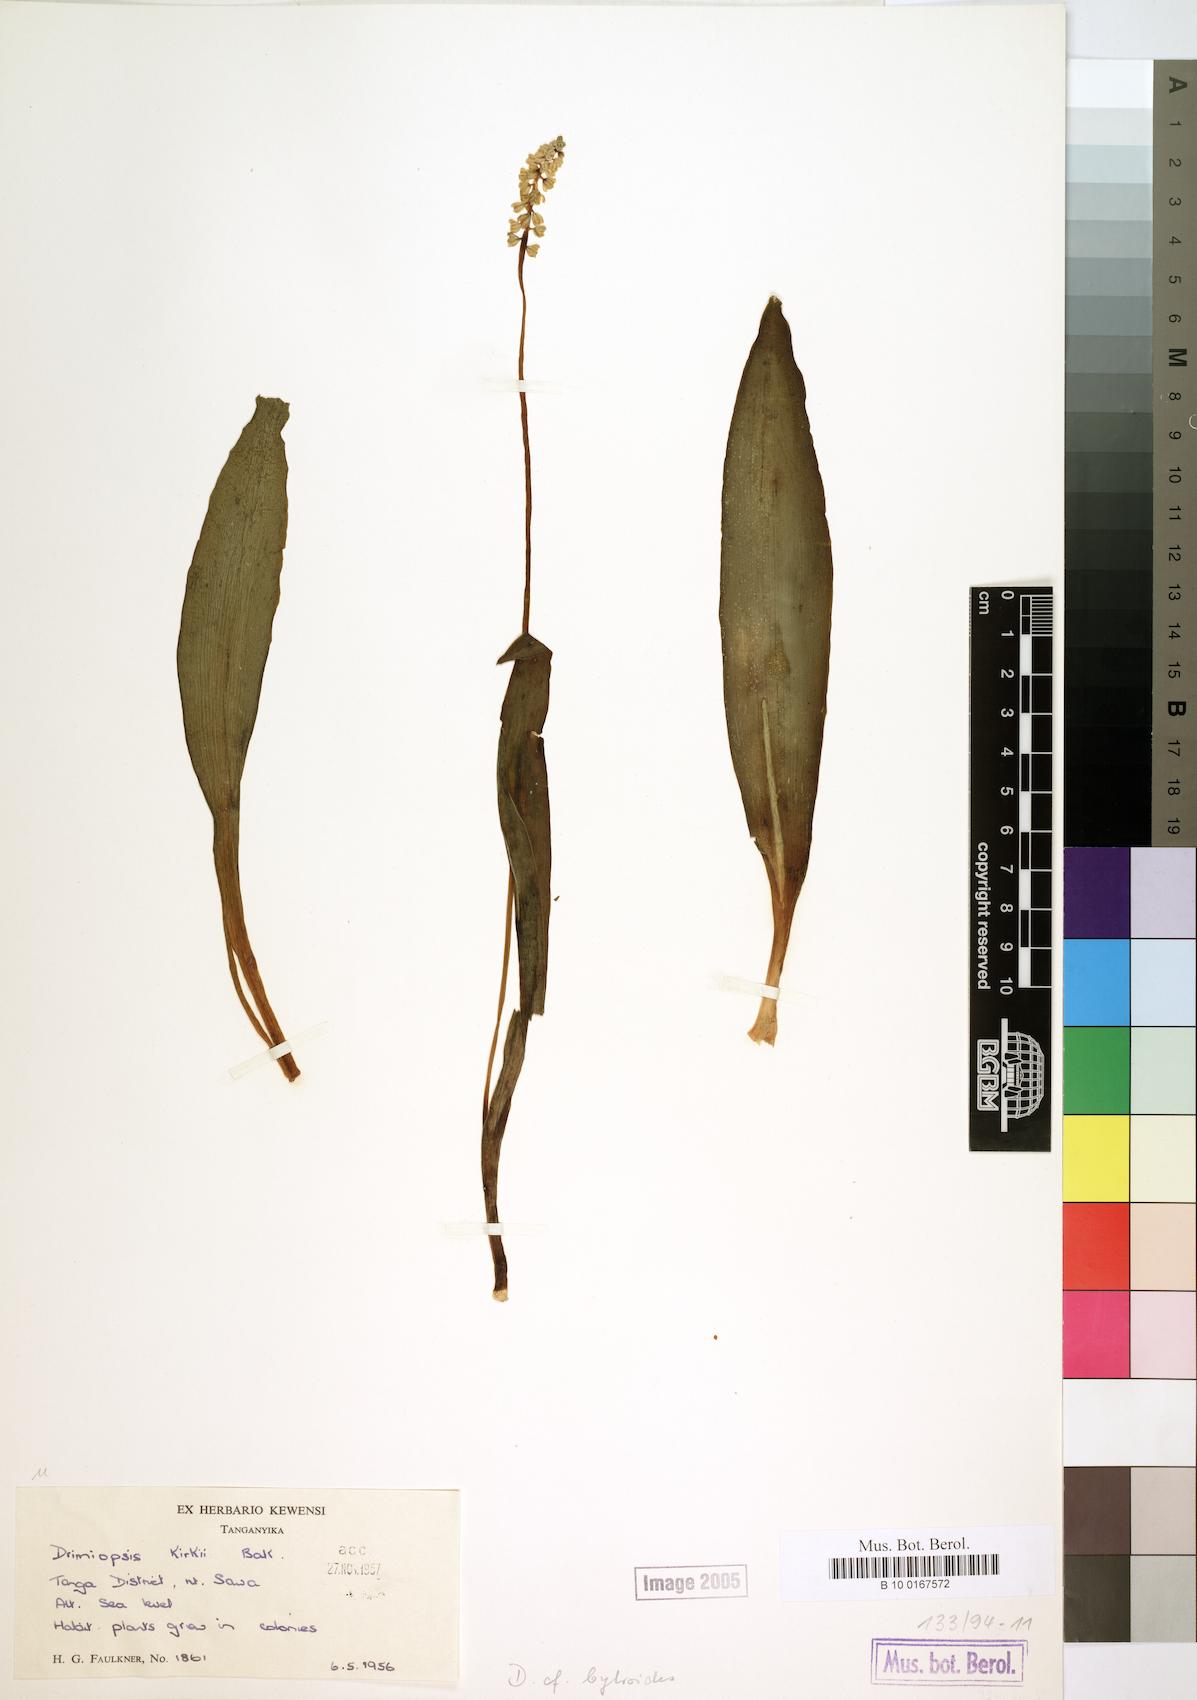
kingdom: Plantae
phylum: Tracheophyta
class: Liliopsida
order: Asparagales
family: Asparagaceae
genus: Drimiopsis
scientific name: Drimiopsis botryoides
